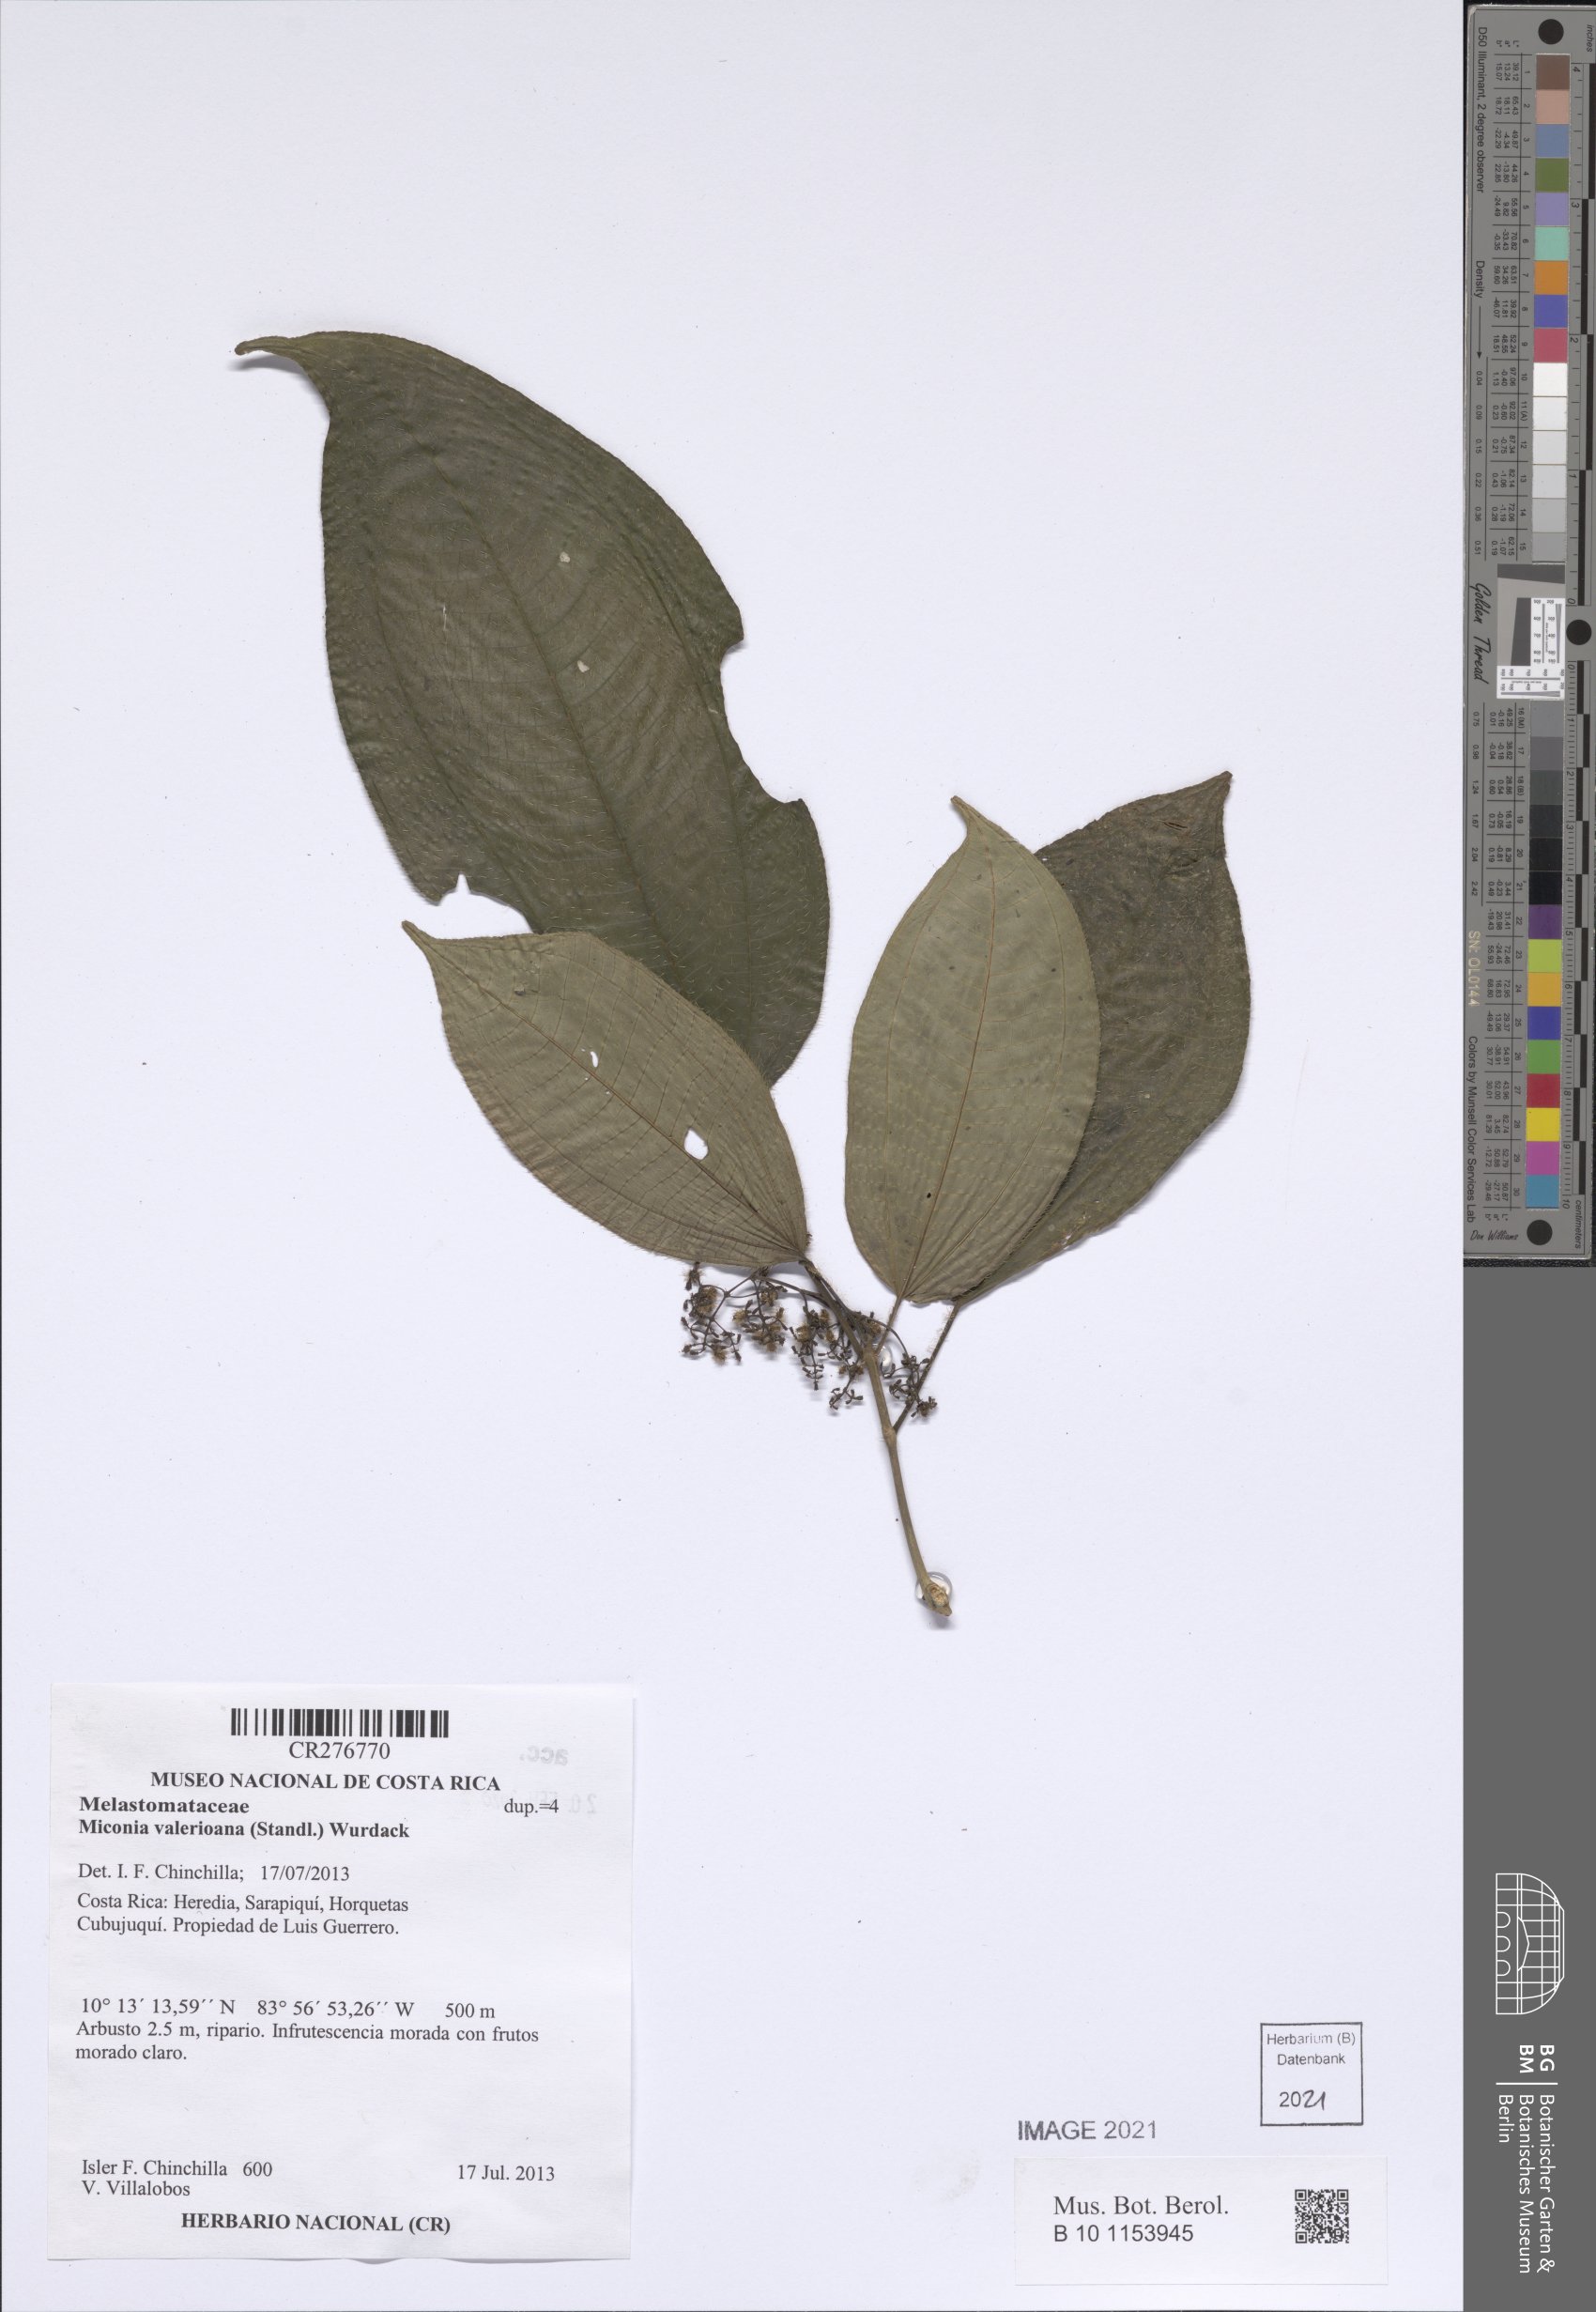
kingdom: Plantae
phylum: Tracheophyta
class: Magnoliopsida
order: Myrtales
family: Melastomataceae
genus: Miconia
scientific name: Miconia
